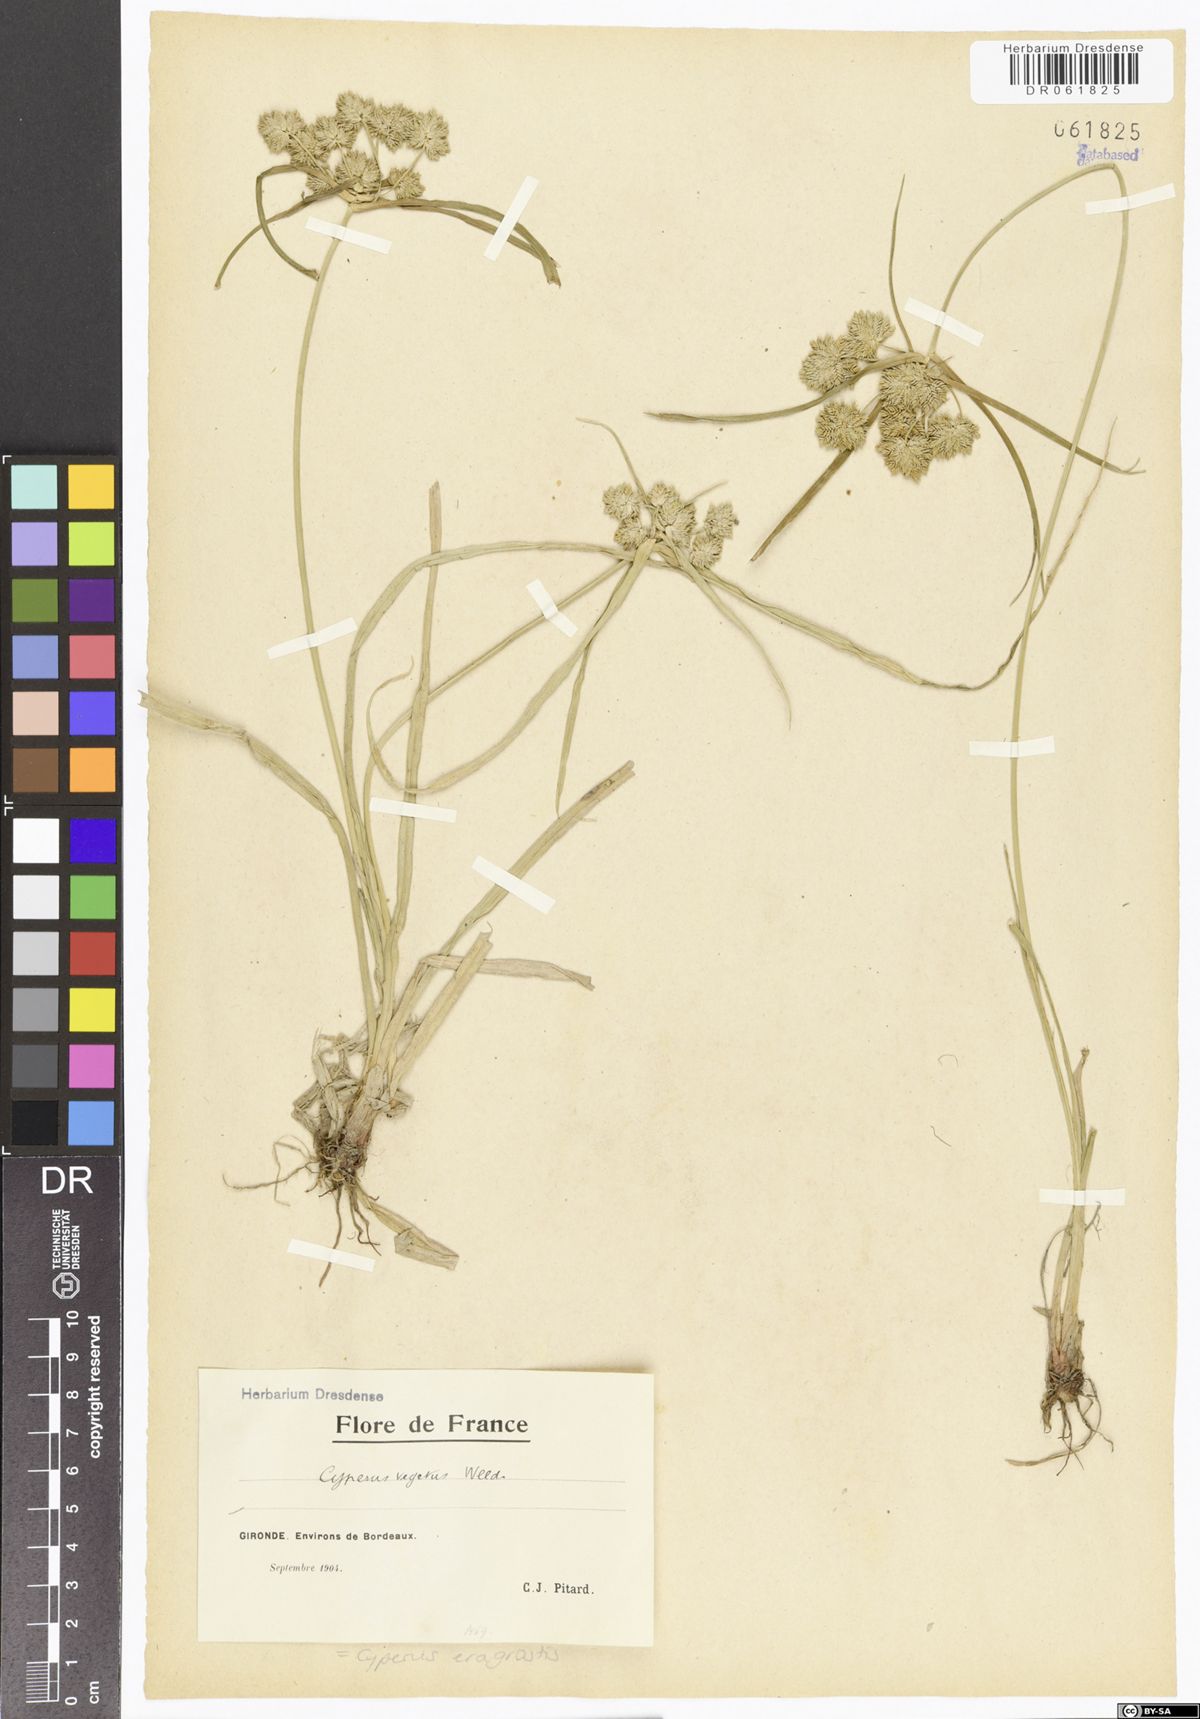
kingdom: Plantae
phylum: Tracheophyta
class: Liliopsida
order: Poales
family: Cyperaceae
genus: Cyperus
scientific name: Cyperus eragrostis
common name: Tall flatsedge
